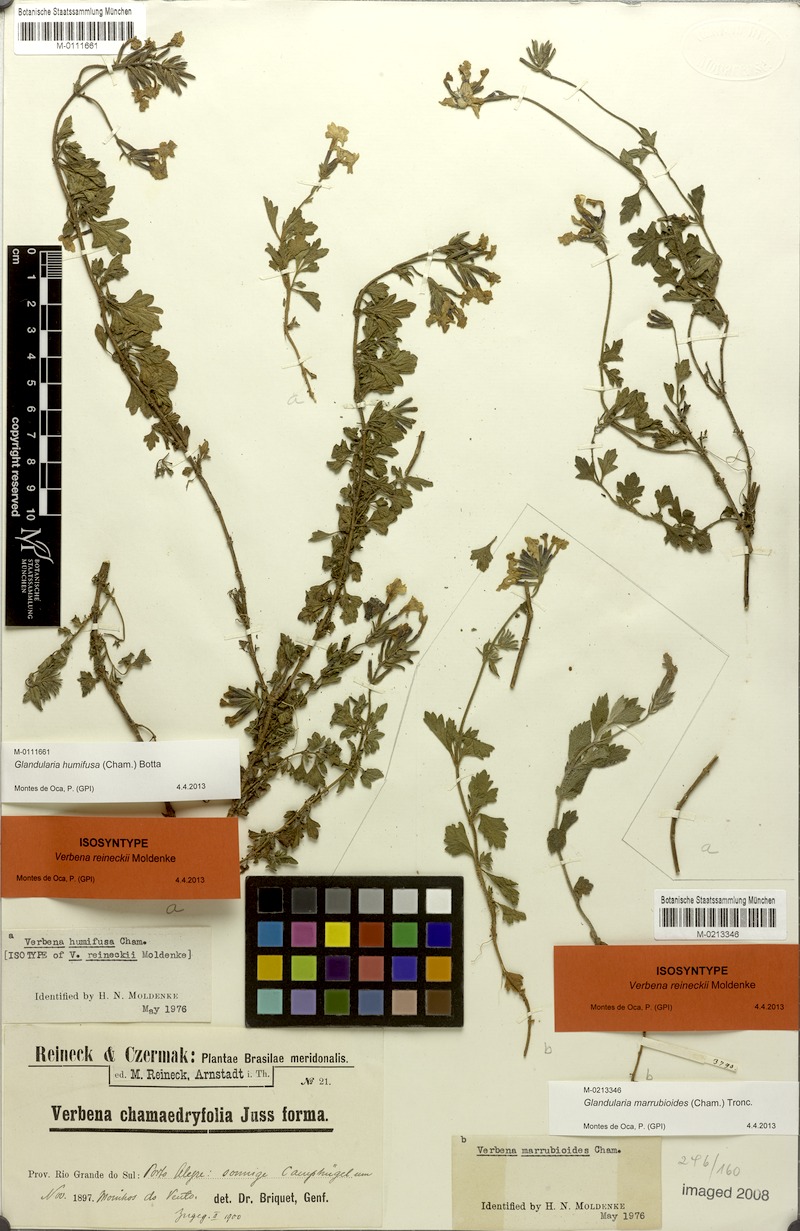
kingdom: Plantae
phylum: Tracheophyta
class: Magnoliopsida
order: Lamiales
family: Verbenaceae
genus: Verbena
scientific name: Verbena marrubioides
